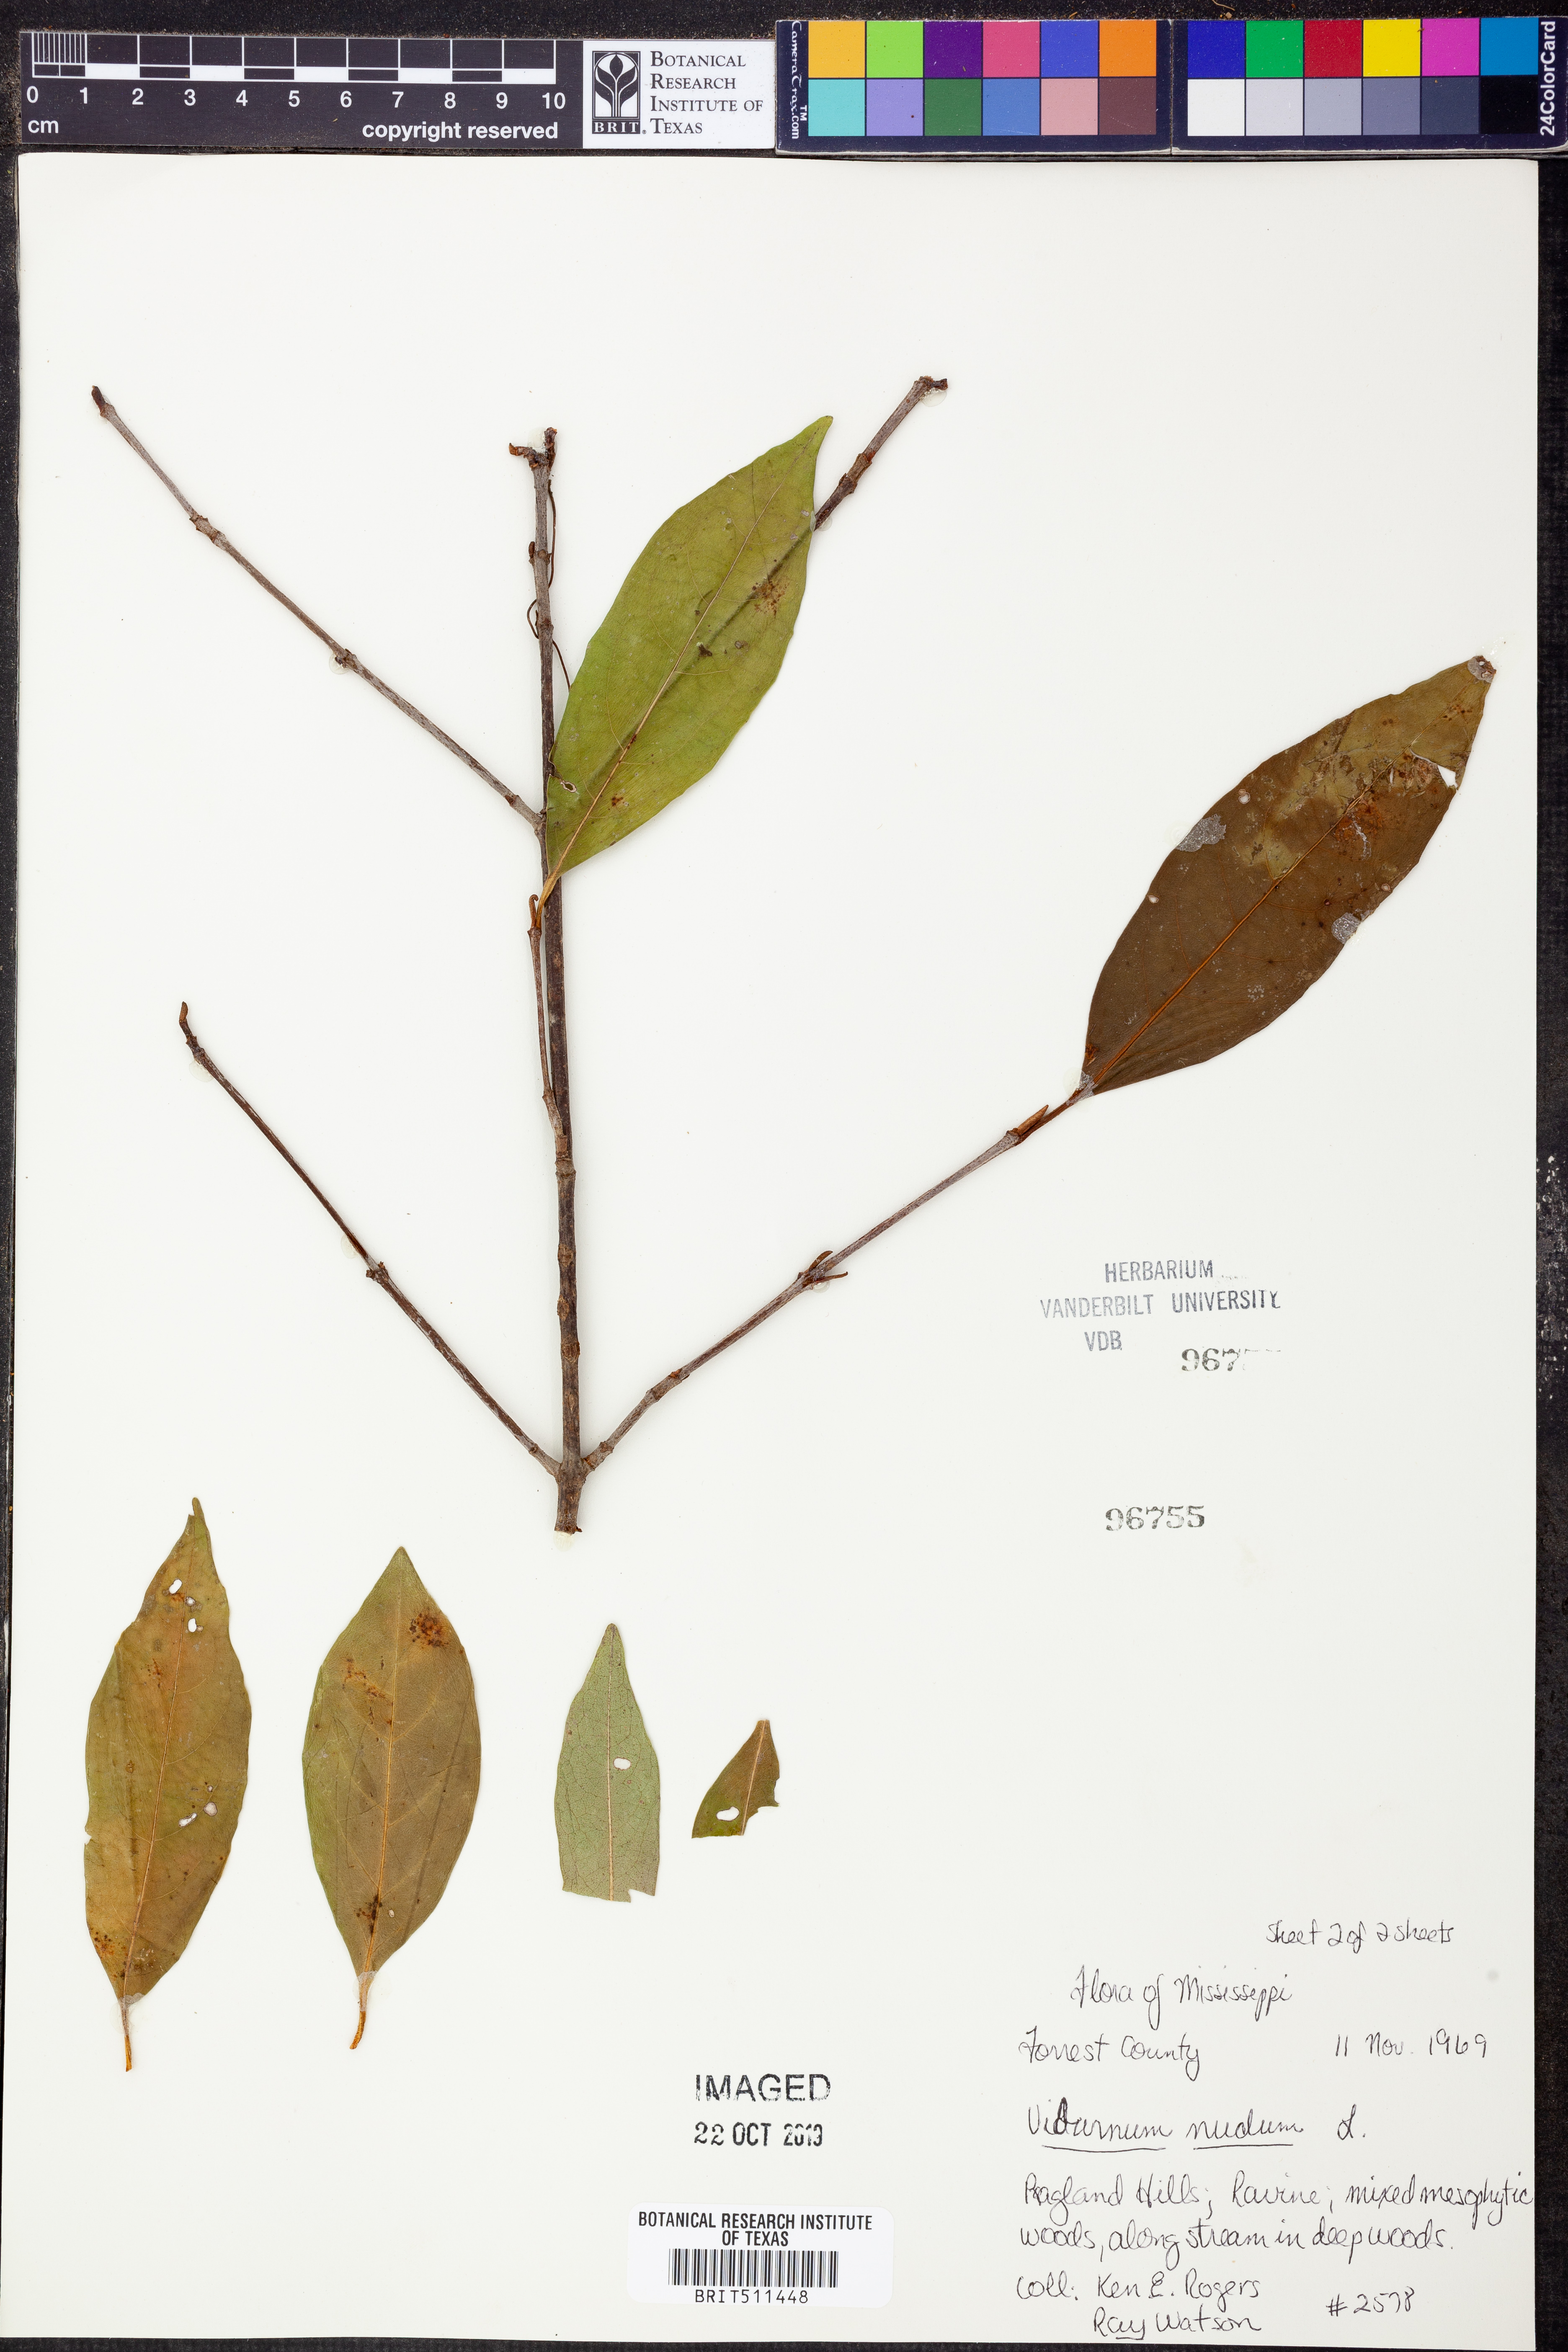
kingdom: Plantae
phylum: Tracheophyta
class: Magnoliopsida
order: Dipsacales
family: Viburnaceae
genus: Viburnum
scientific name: Viburnum nudum
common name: Possum haw
